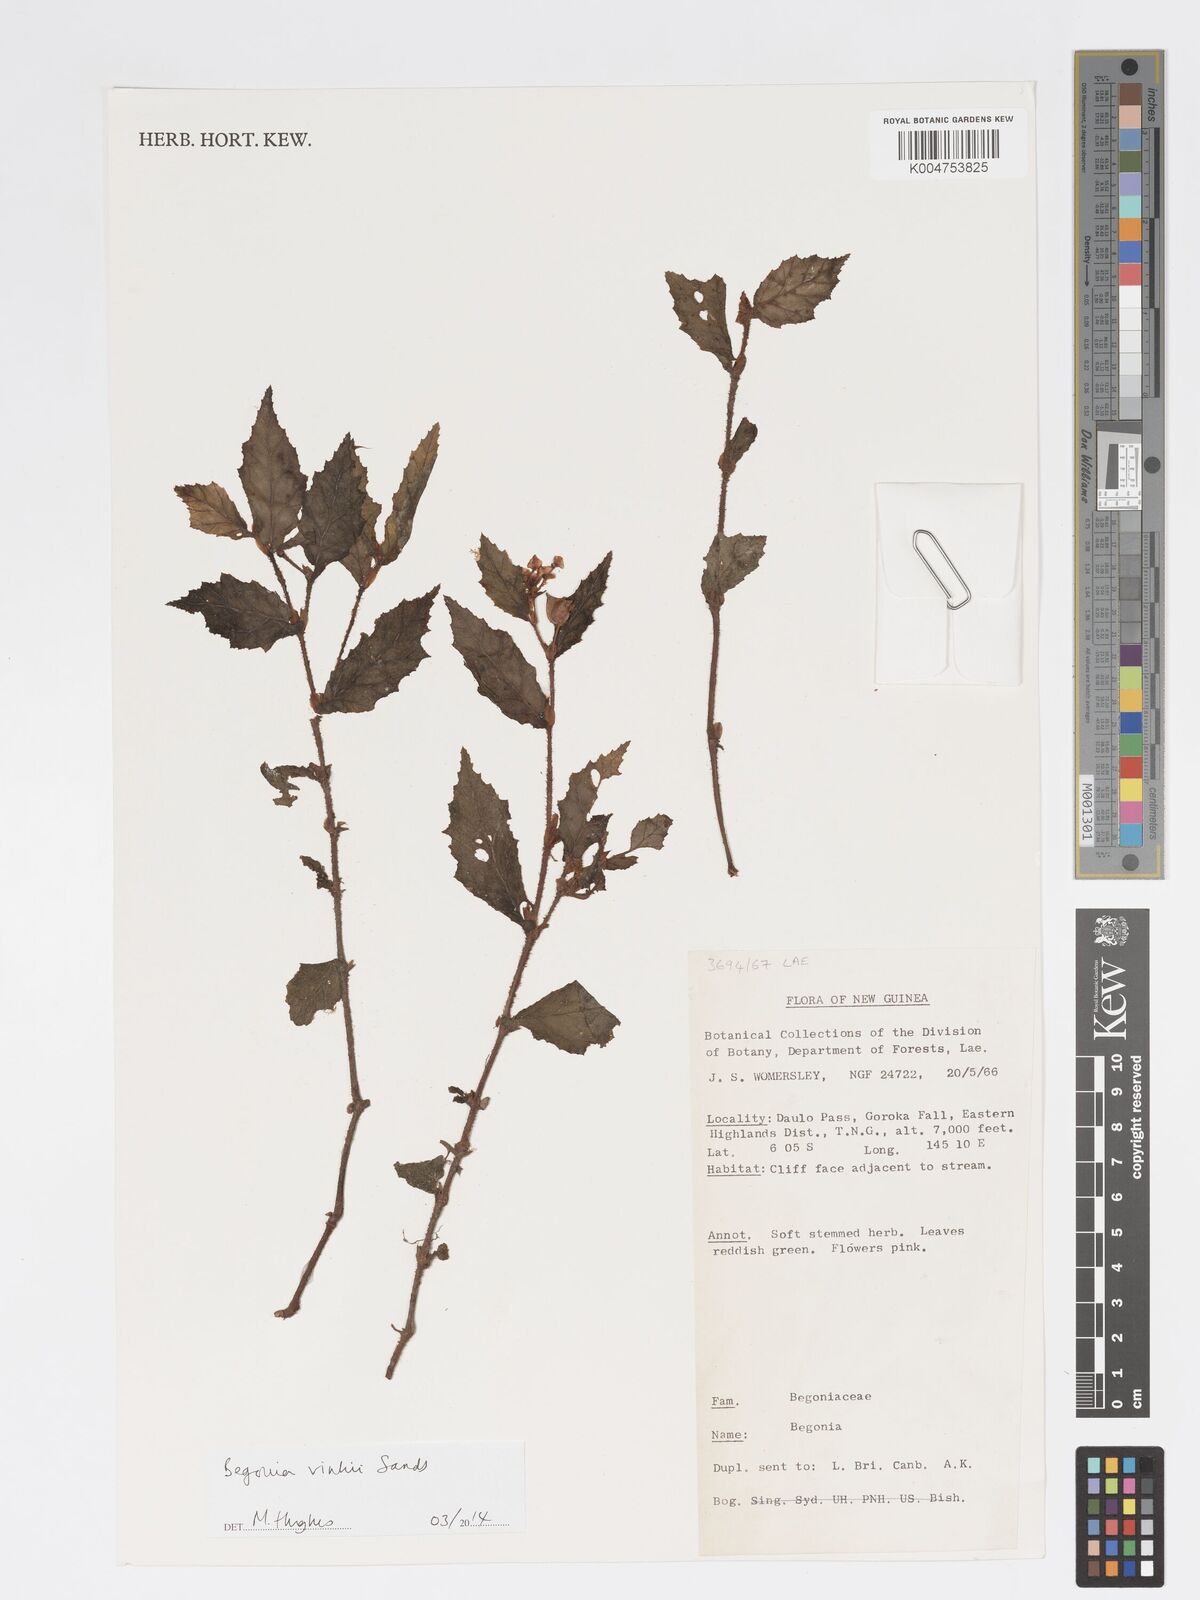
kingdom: Plantae
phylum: Tracheophyta
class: Magnoliopsida
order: Cucurbitales
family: Begoniaceae
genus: Begonia
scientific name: Begonia vinkii
